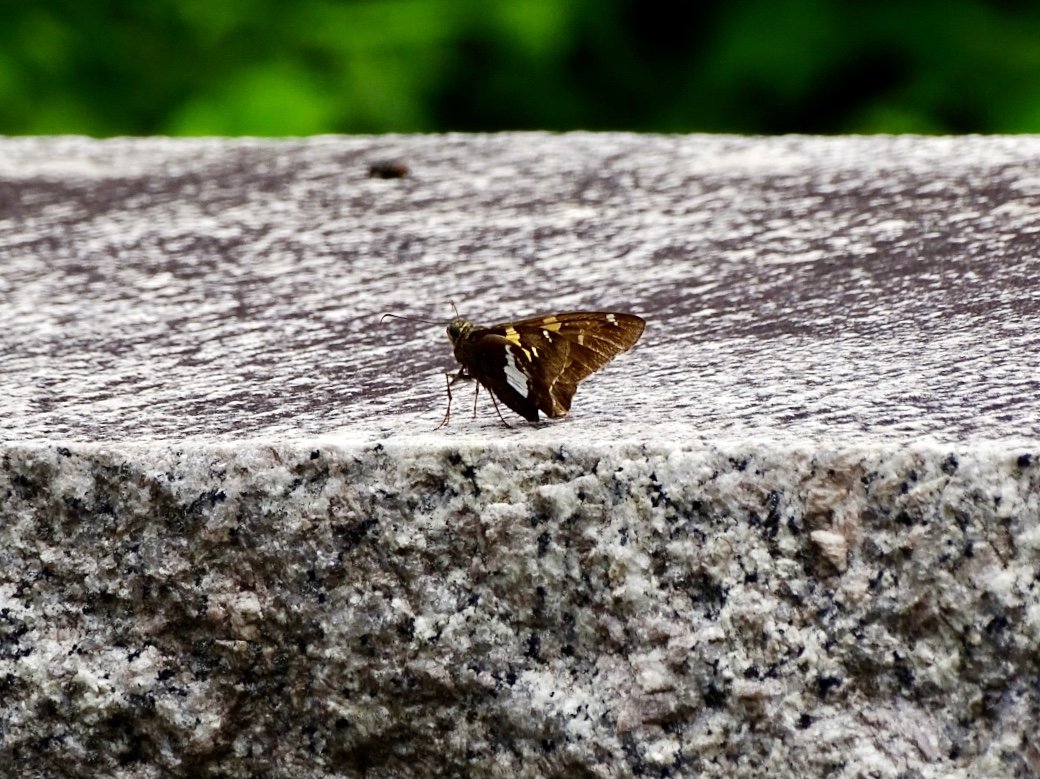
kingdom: Animalia
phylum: Arthropoda
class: Insecta
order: Lepidoptera
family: Hesperiidae
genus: Epargyreus
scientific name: Epargyreus clarus
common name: Silver-spotted Skipper
